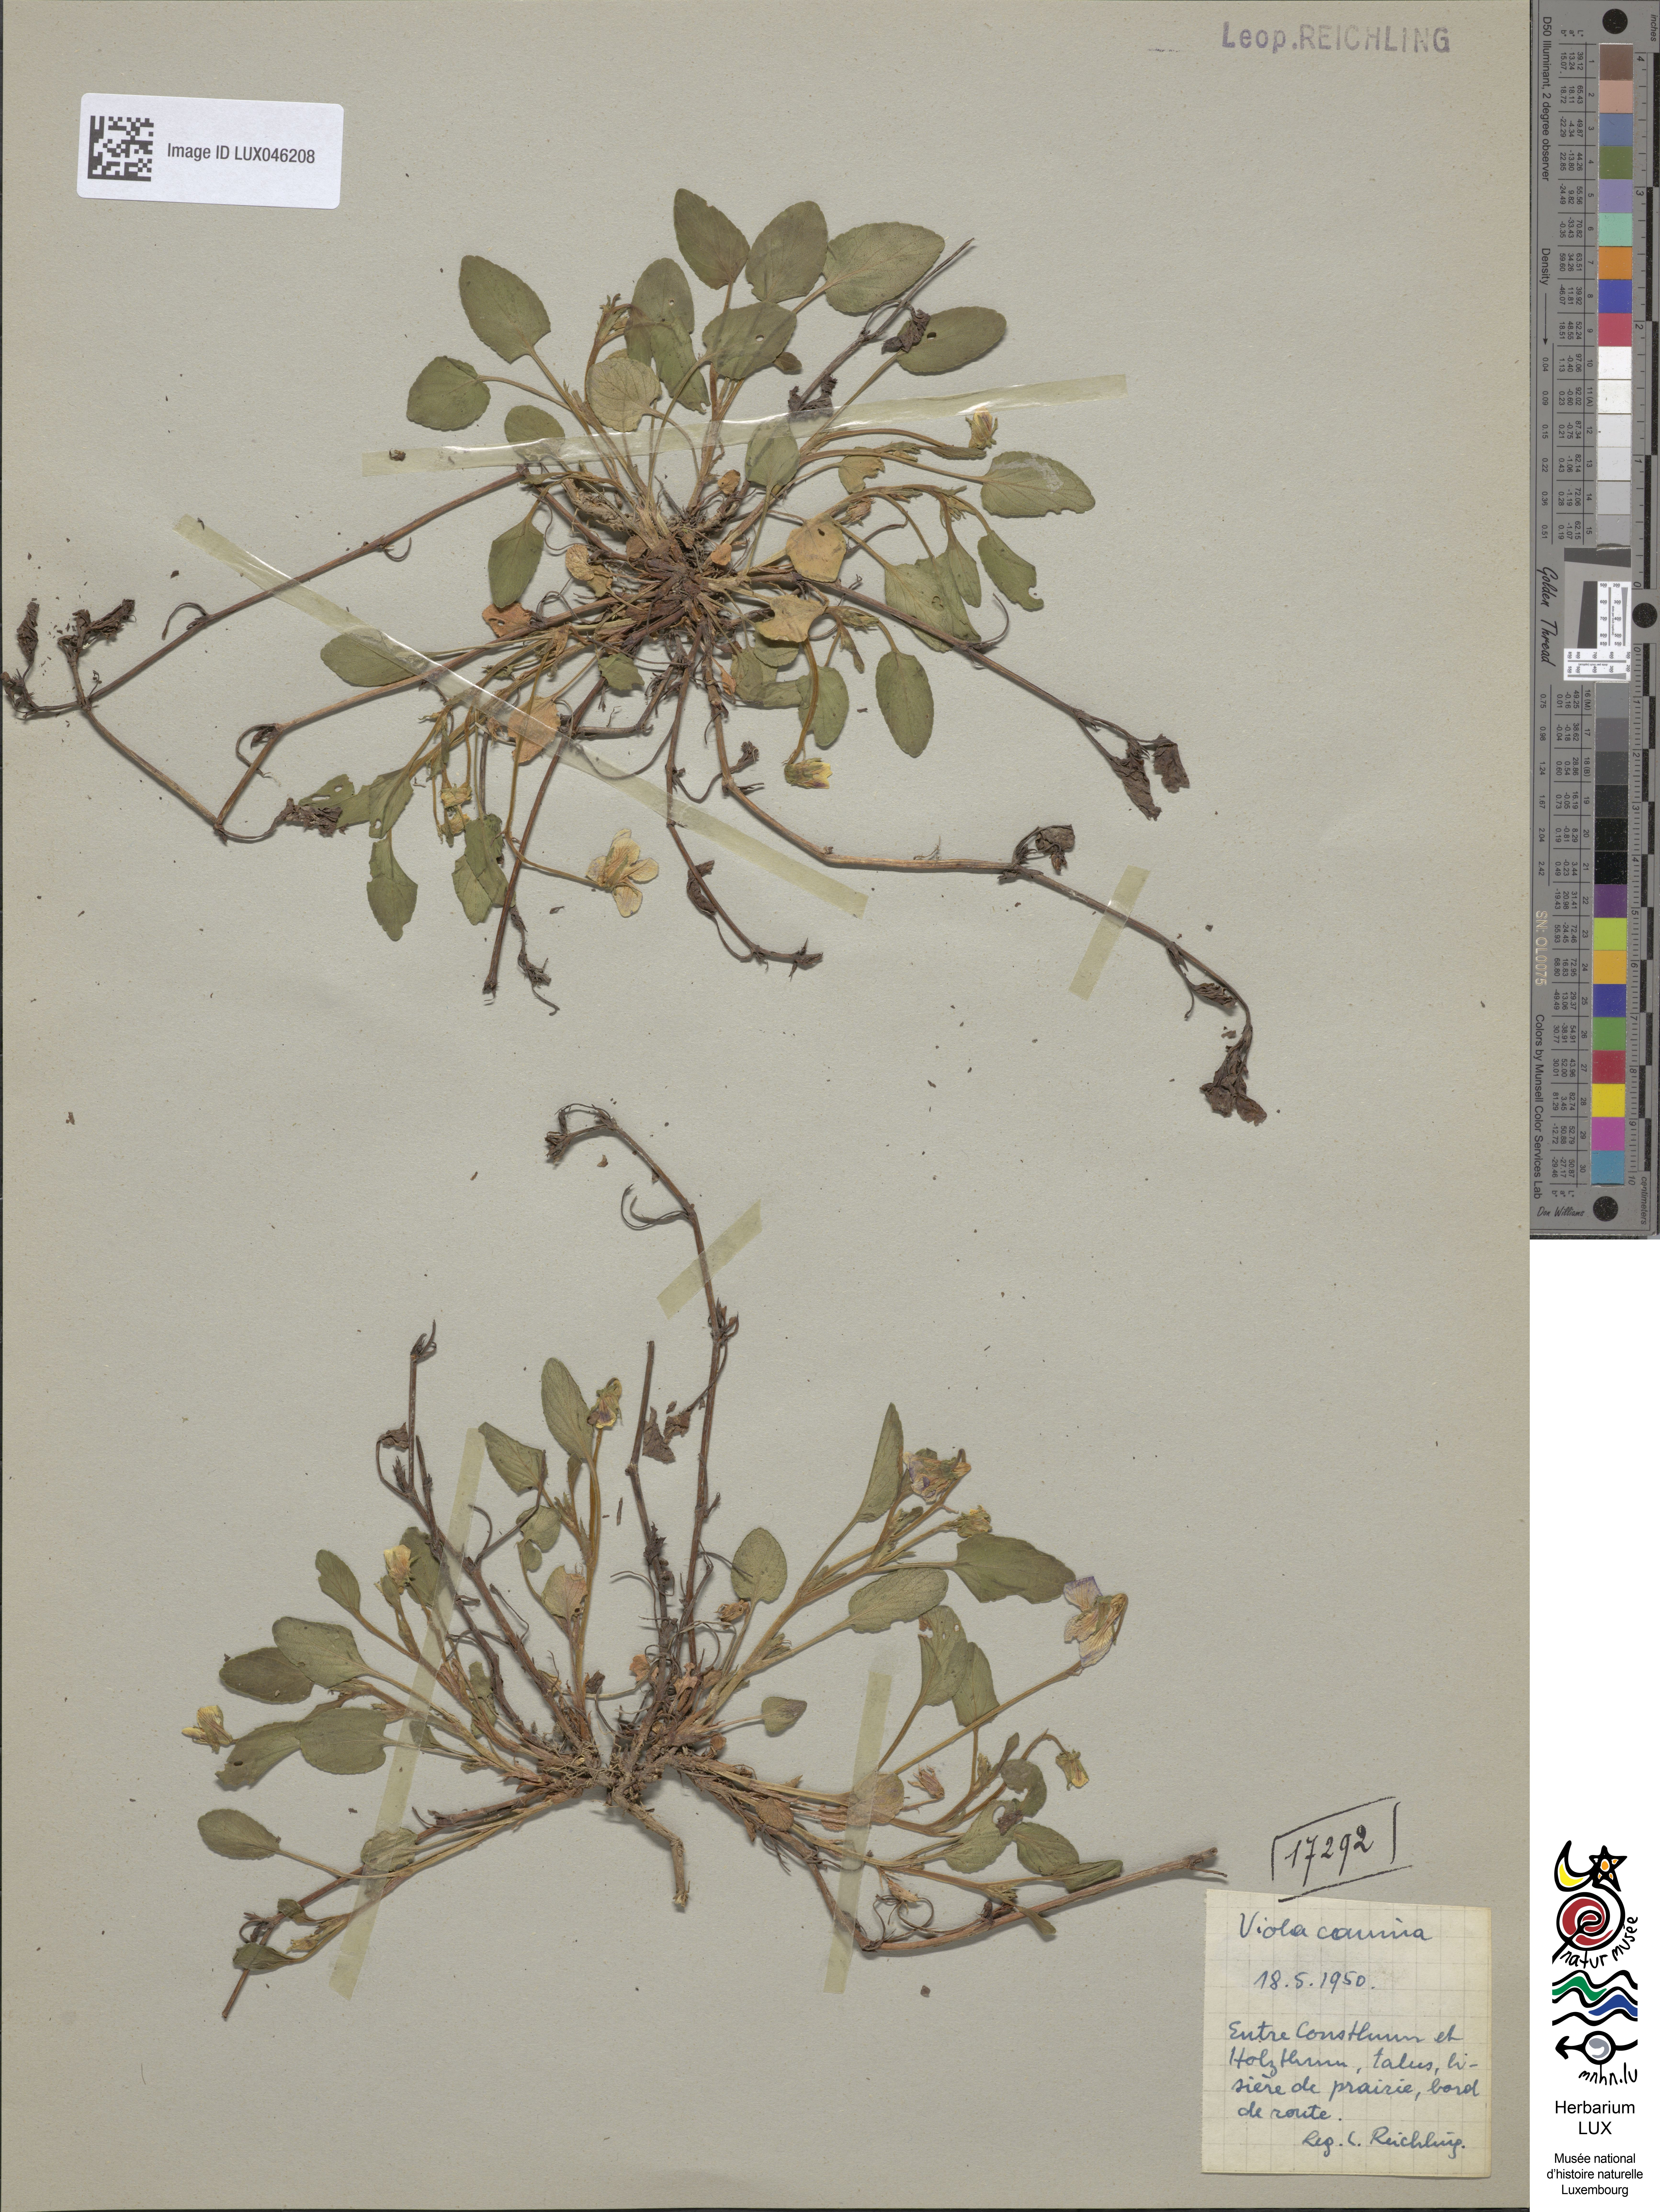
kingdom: Plantae
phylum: Tracheophyta
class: Magnoliopsida
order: Malpighiales
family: Violaceae
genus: Viola
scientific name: Viola canina
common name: Heath dog-violet
